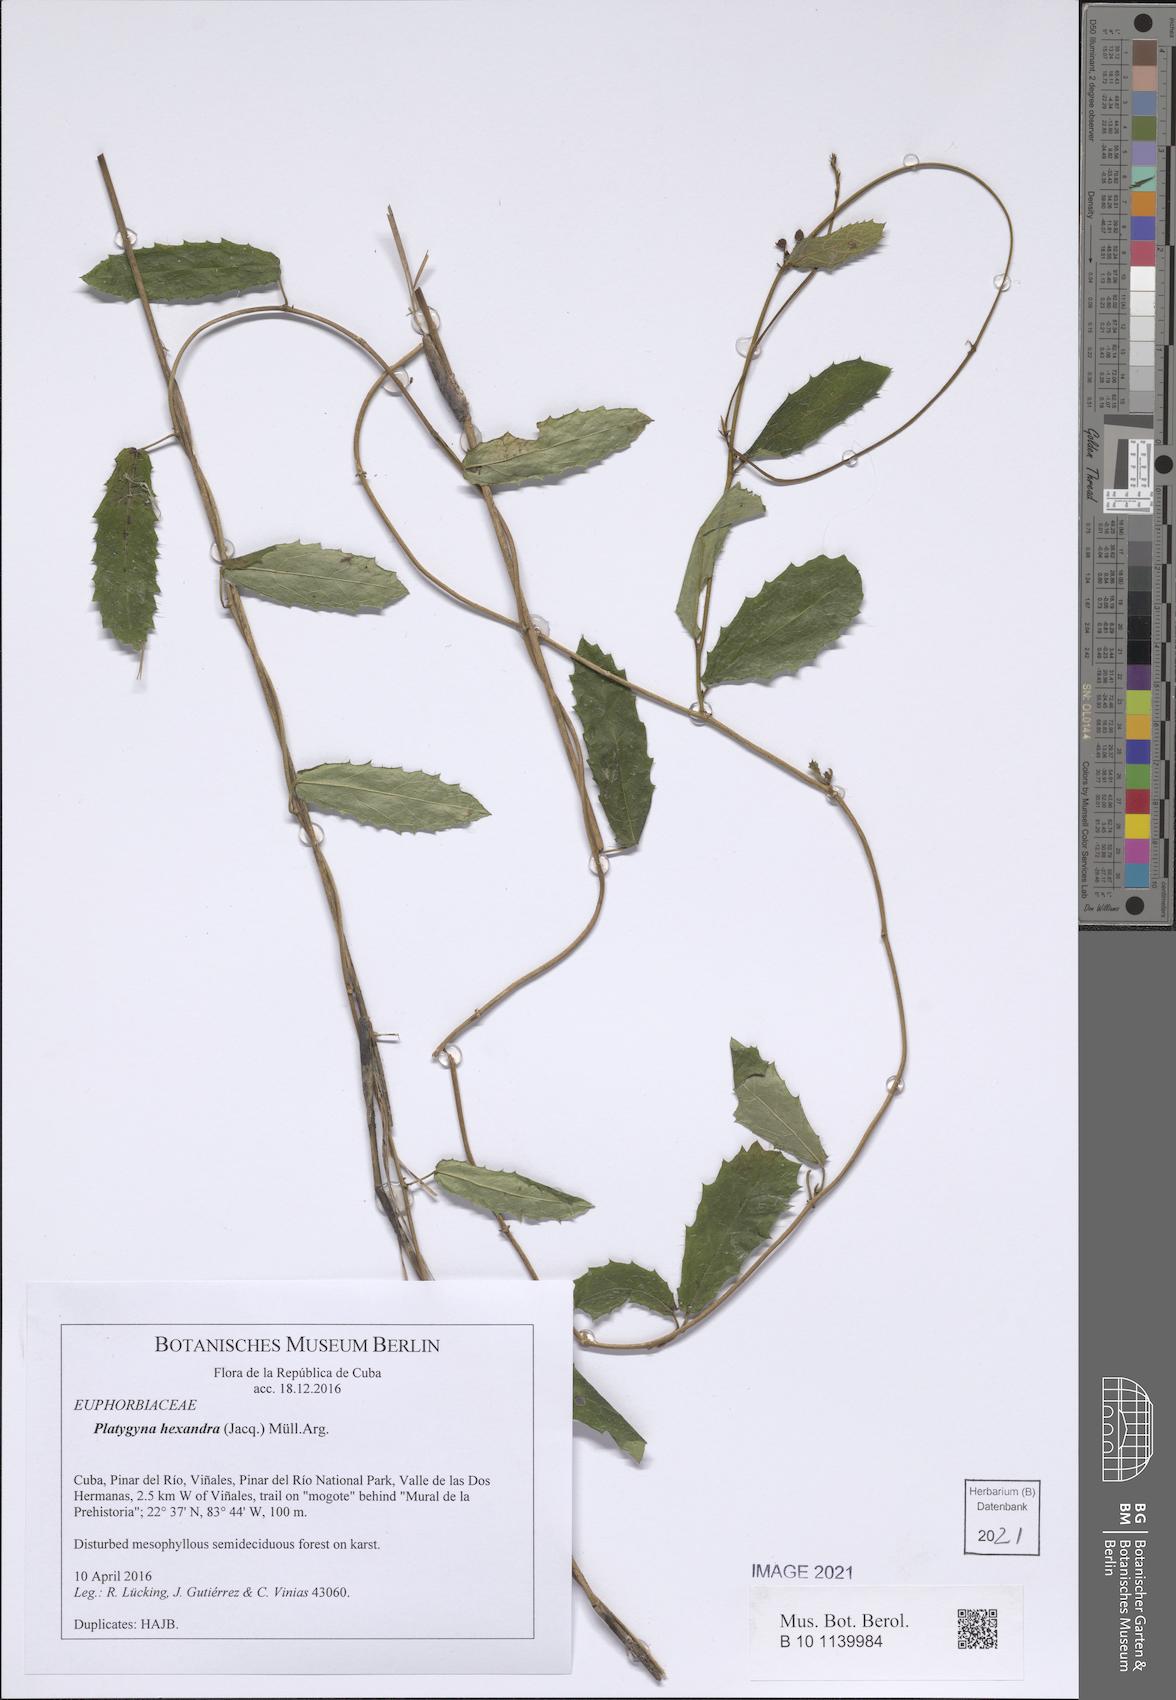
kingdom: Plantae
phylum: Tracheophyta
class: Magnoliopsida
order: Malpighiales
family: Euphorbiaceae
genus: Platygyna
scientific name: Platygyna hexandra
